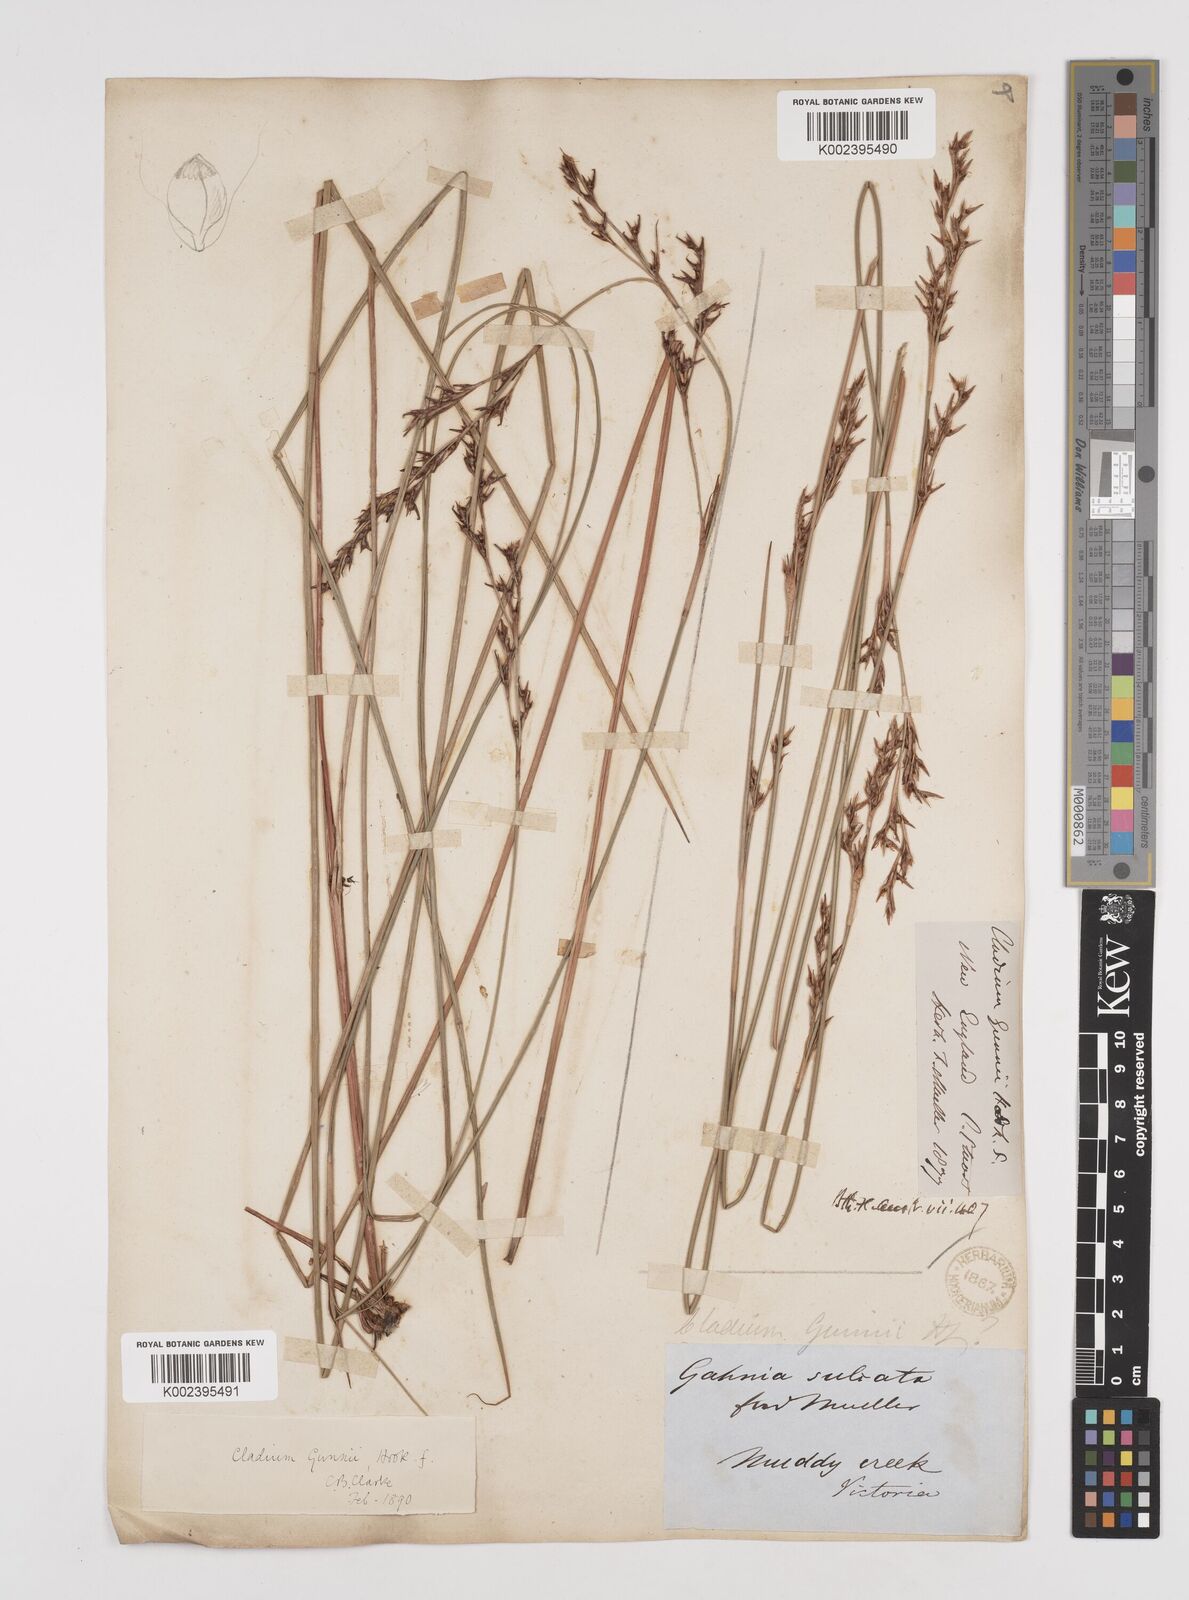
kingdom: Plantae
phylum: Tracheophyta
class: Liliopsida
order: Poales
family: Cyperaceae
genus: Machaerina
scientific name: Machaerina gunnii
